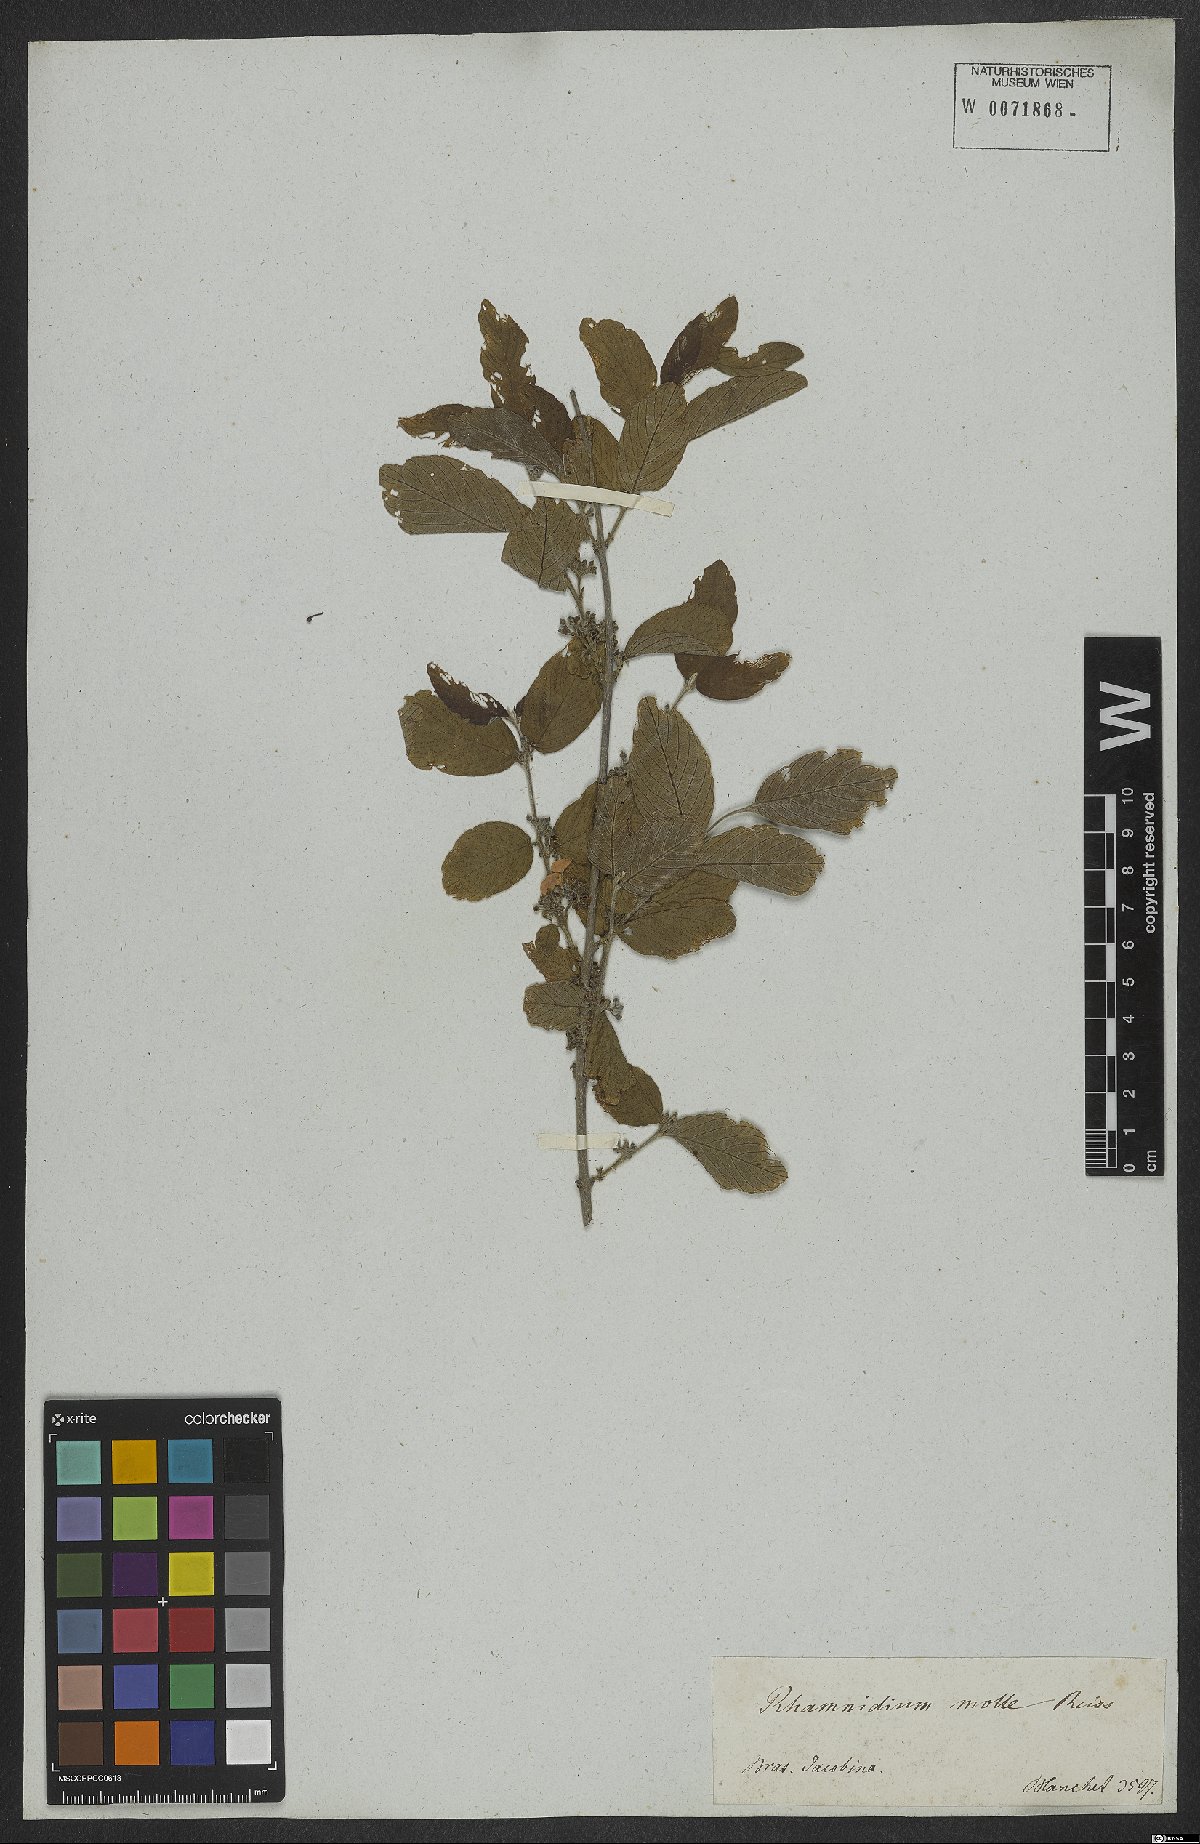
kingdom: Plantae
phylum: Tracheophyta
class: Magnoliopsida
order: Rosales
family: Rhamnaceae
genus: Rhamnidium
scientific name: Rhamnidium molle
